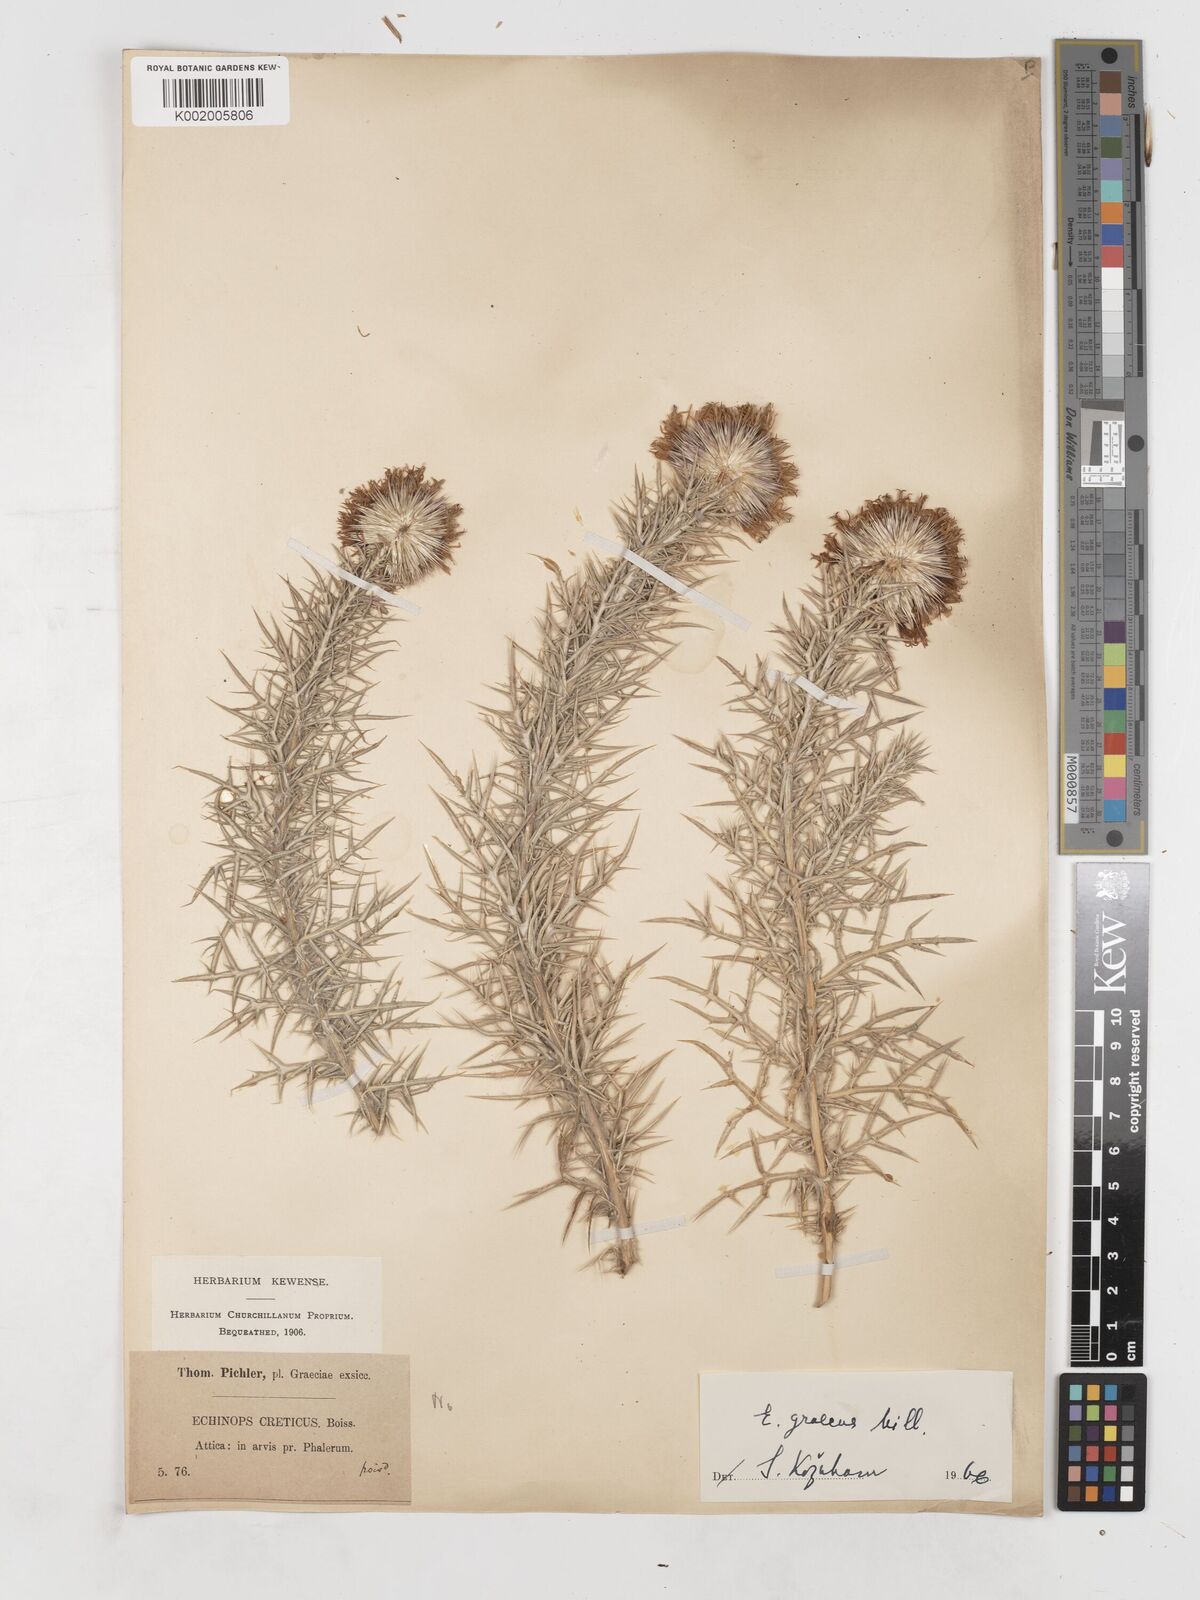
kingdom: Plantae
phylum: Tracheophyta
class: Magnoliopsida
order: Asterales
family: Asteraceae
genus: Echinops
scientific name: Echinops graecus
